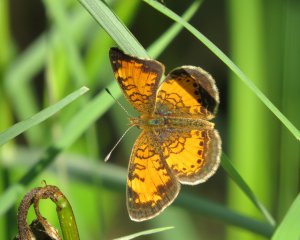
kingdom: Animalia
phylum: Arthropoda
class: Insecta
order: Lepidoptera
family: Nymphalidae
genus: Phyciodes
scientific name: Phyciodes tharos
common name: Northern Crescent
